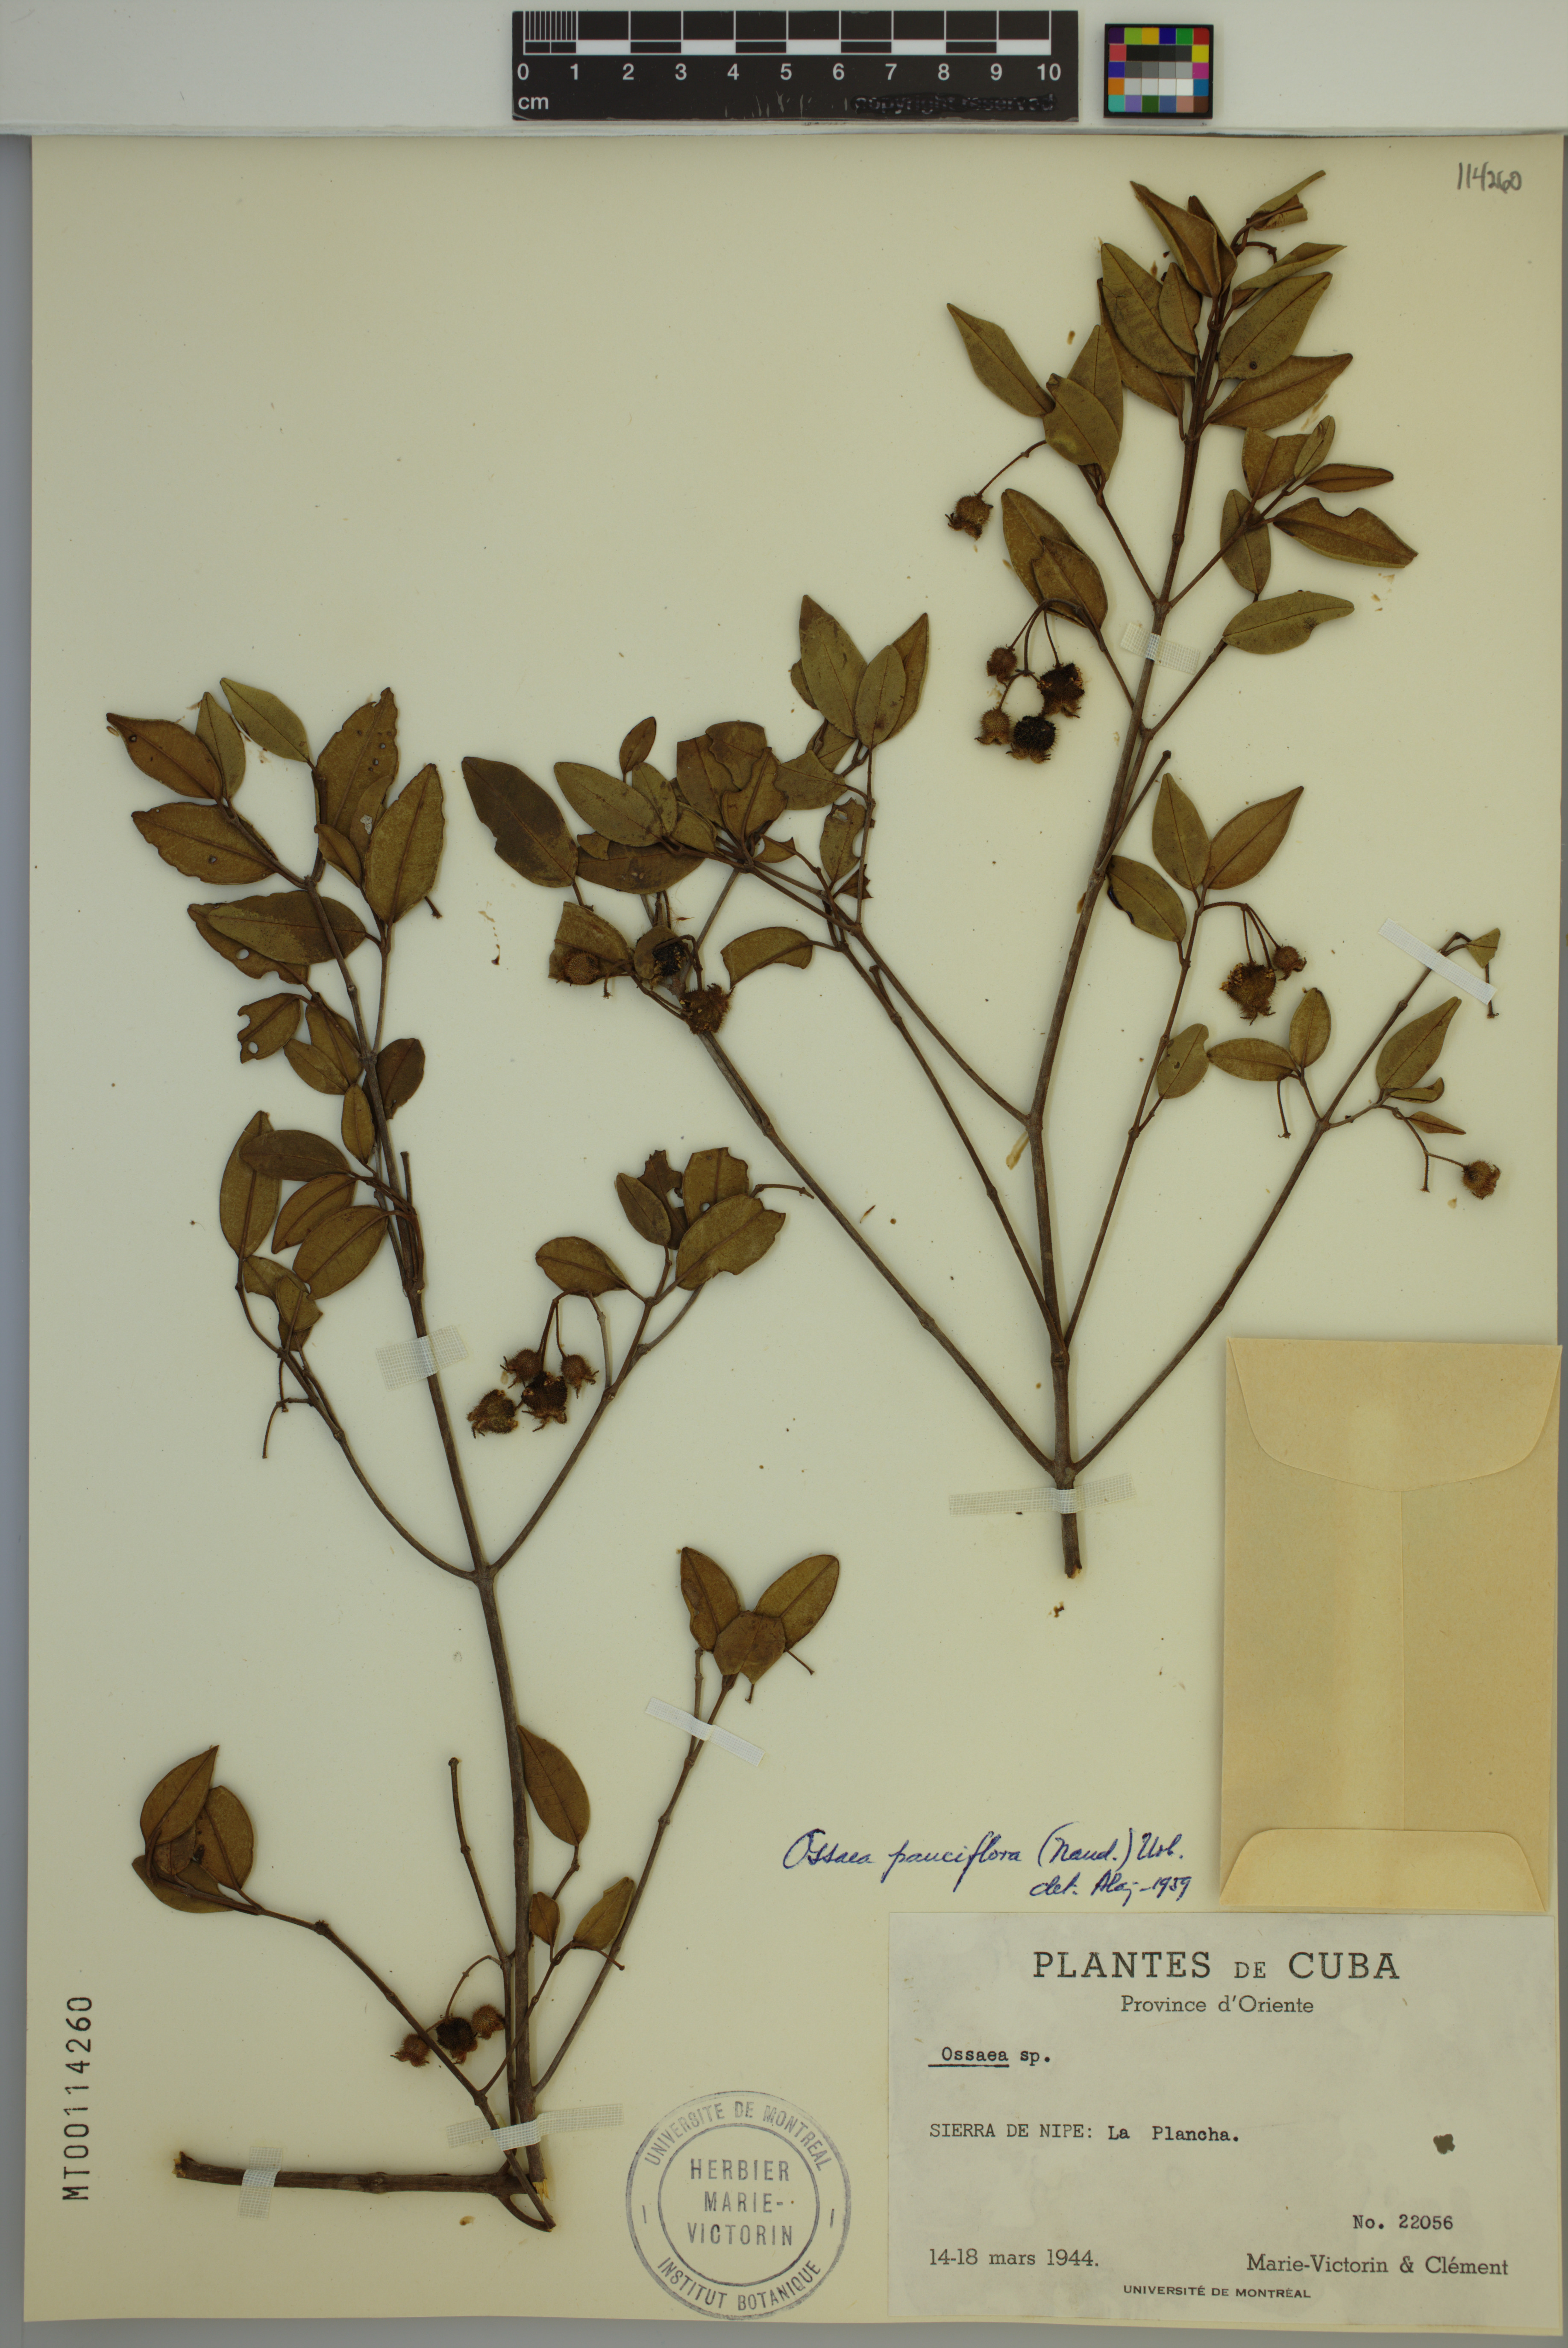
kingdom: Plantae
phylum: Tracheophyta
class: Magnoliopsida
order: Myrtales
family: Melastomataceae
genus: Miconia
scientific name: Miconia echinata
